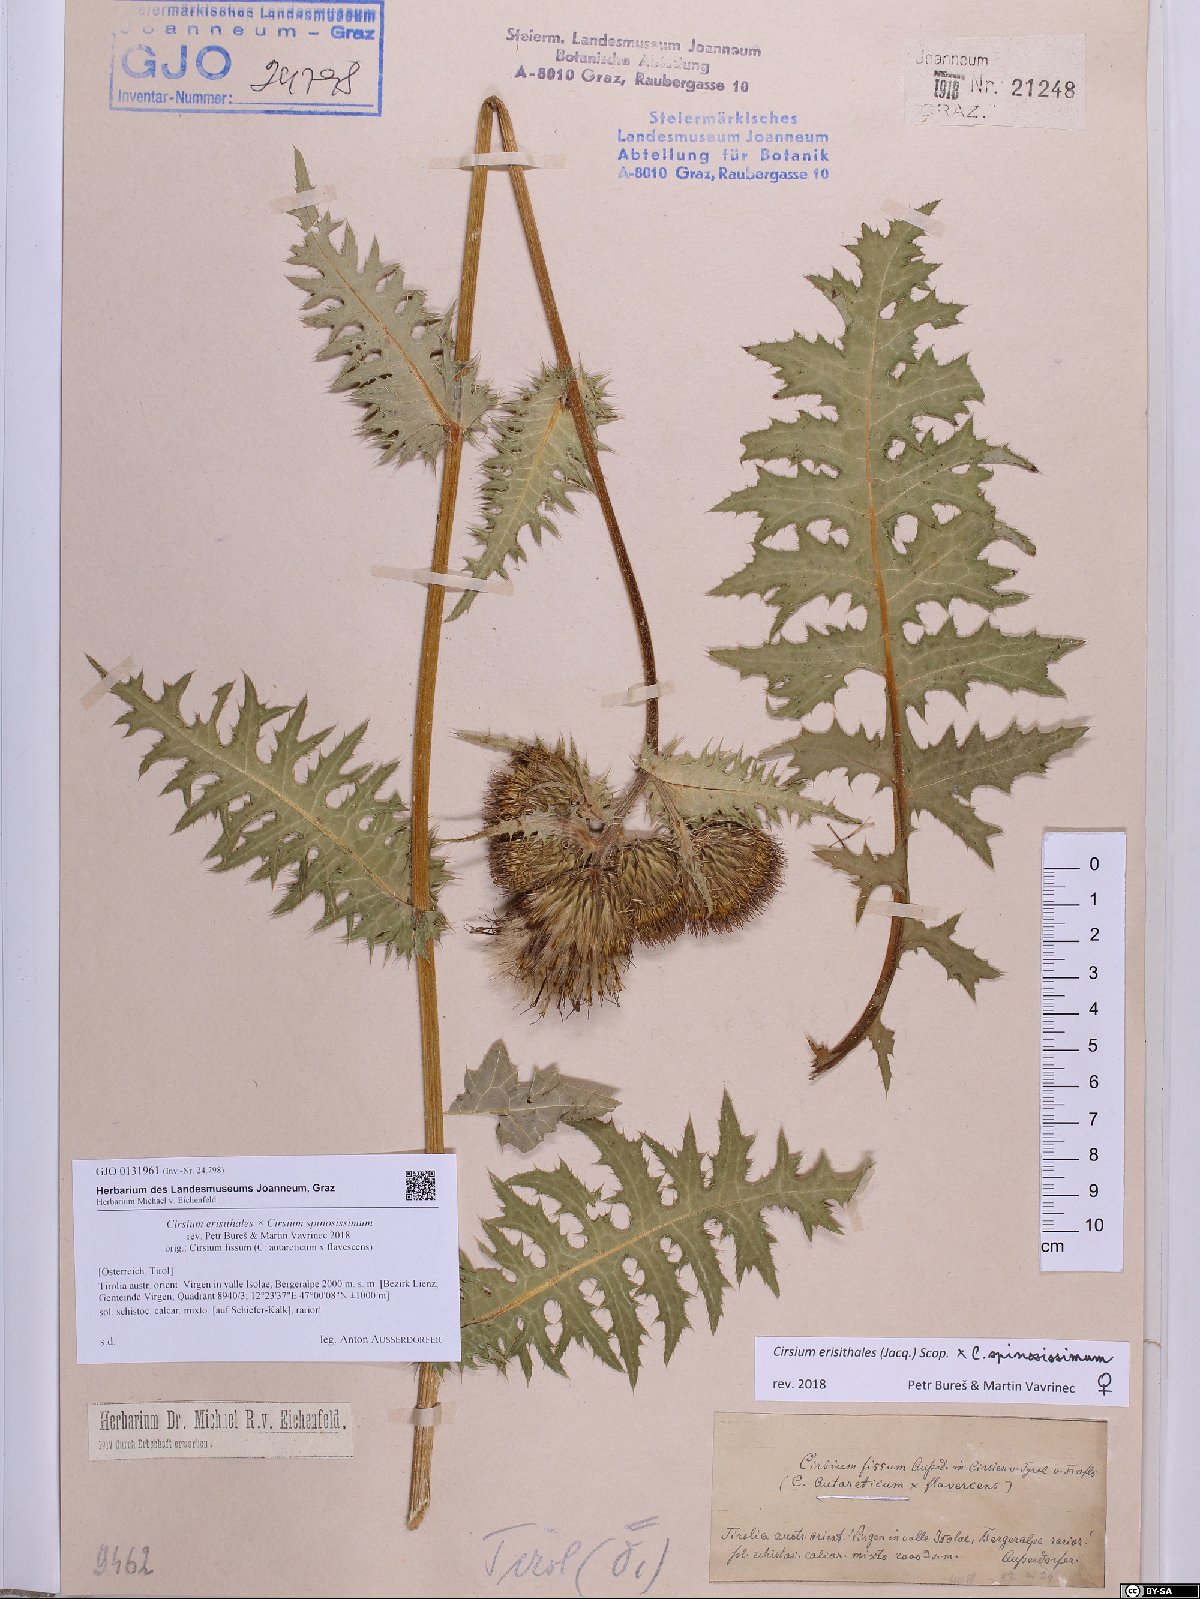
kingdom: Plantae
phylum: Tracheophyta
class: Magnoliopsida
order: Asterales
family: Asteraceae
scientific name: Asteraceae
